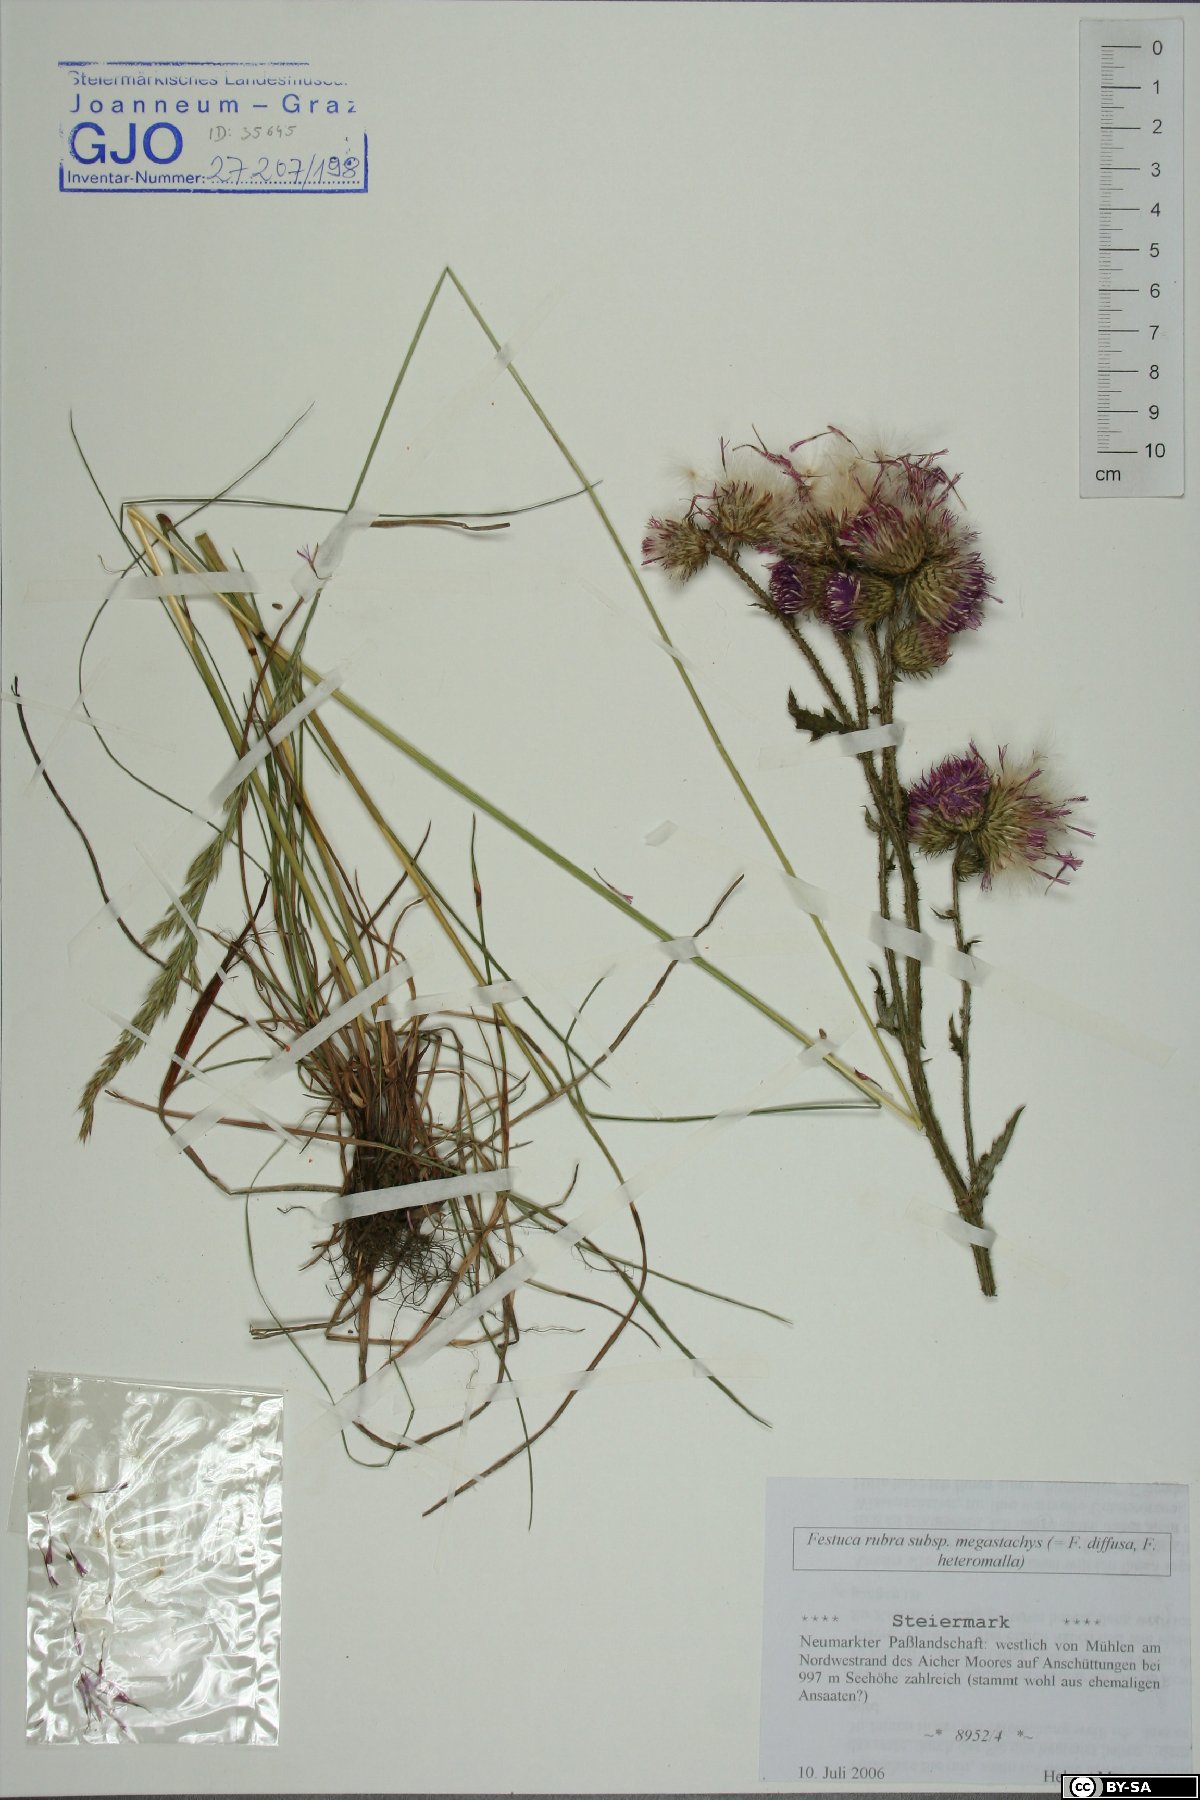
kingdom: Plantae
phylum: Tracheophyta
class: Liliopsida
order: Poales
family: Poaceae
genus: Festuca
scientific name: Festuca rubra
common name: Red fescue
